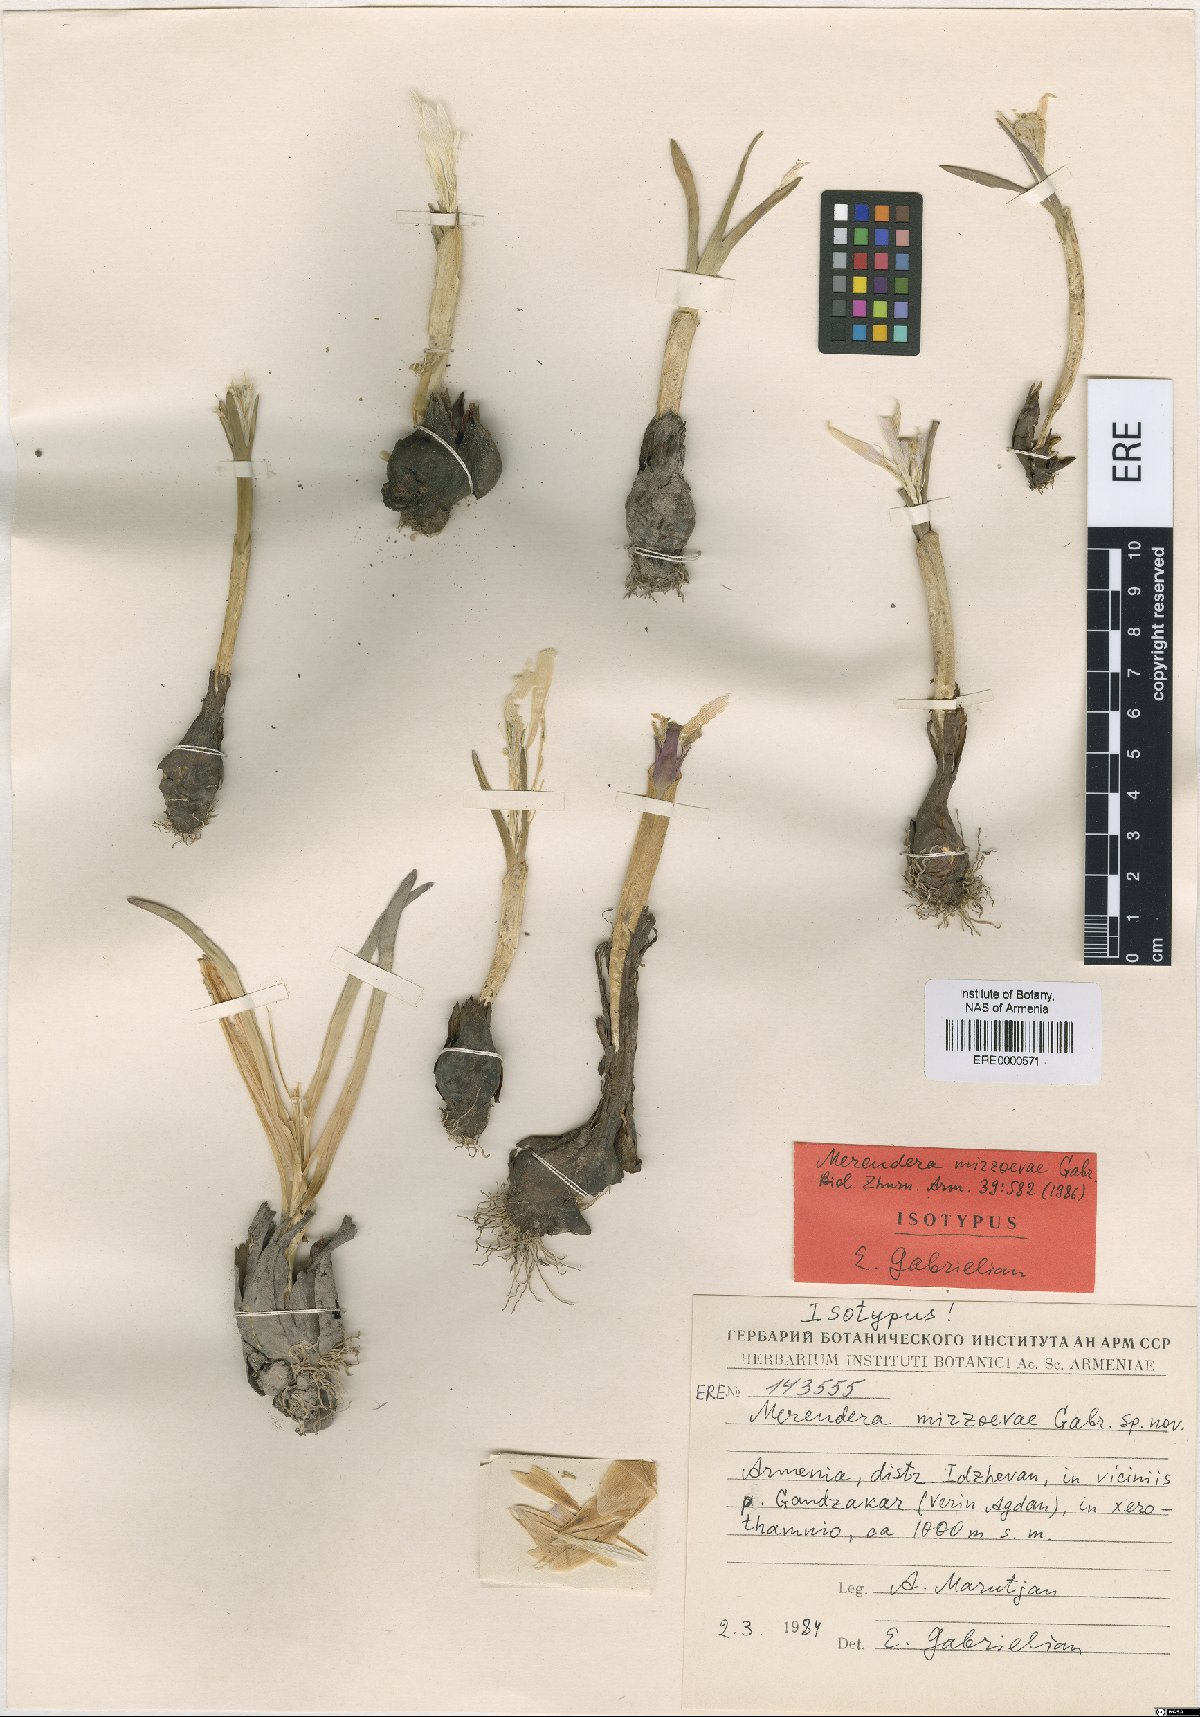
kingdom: Plantae
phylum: Tracheophyta
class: Liliopsida
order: Liliales
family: Colchicaceae
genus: Colchicum
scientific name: Colchicum trigynum
